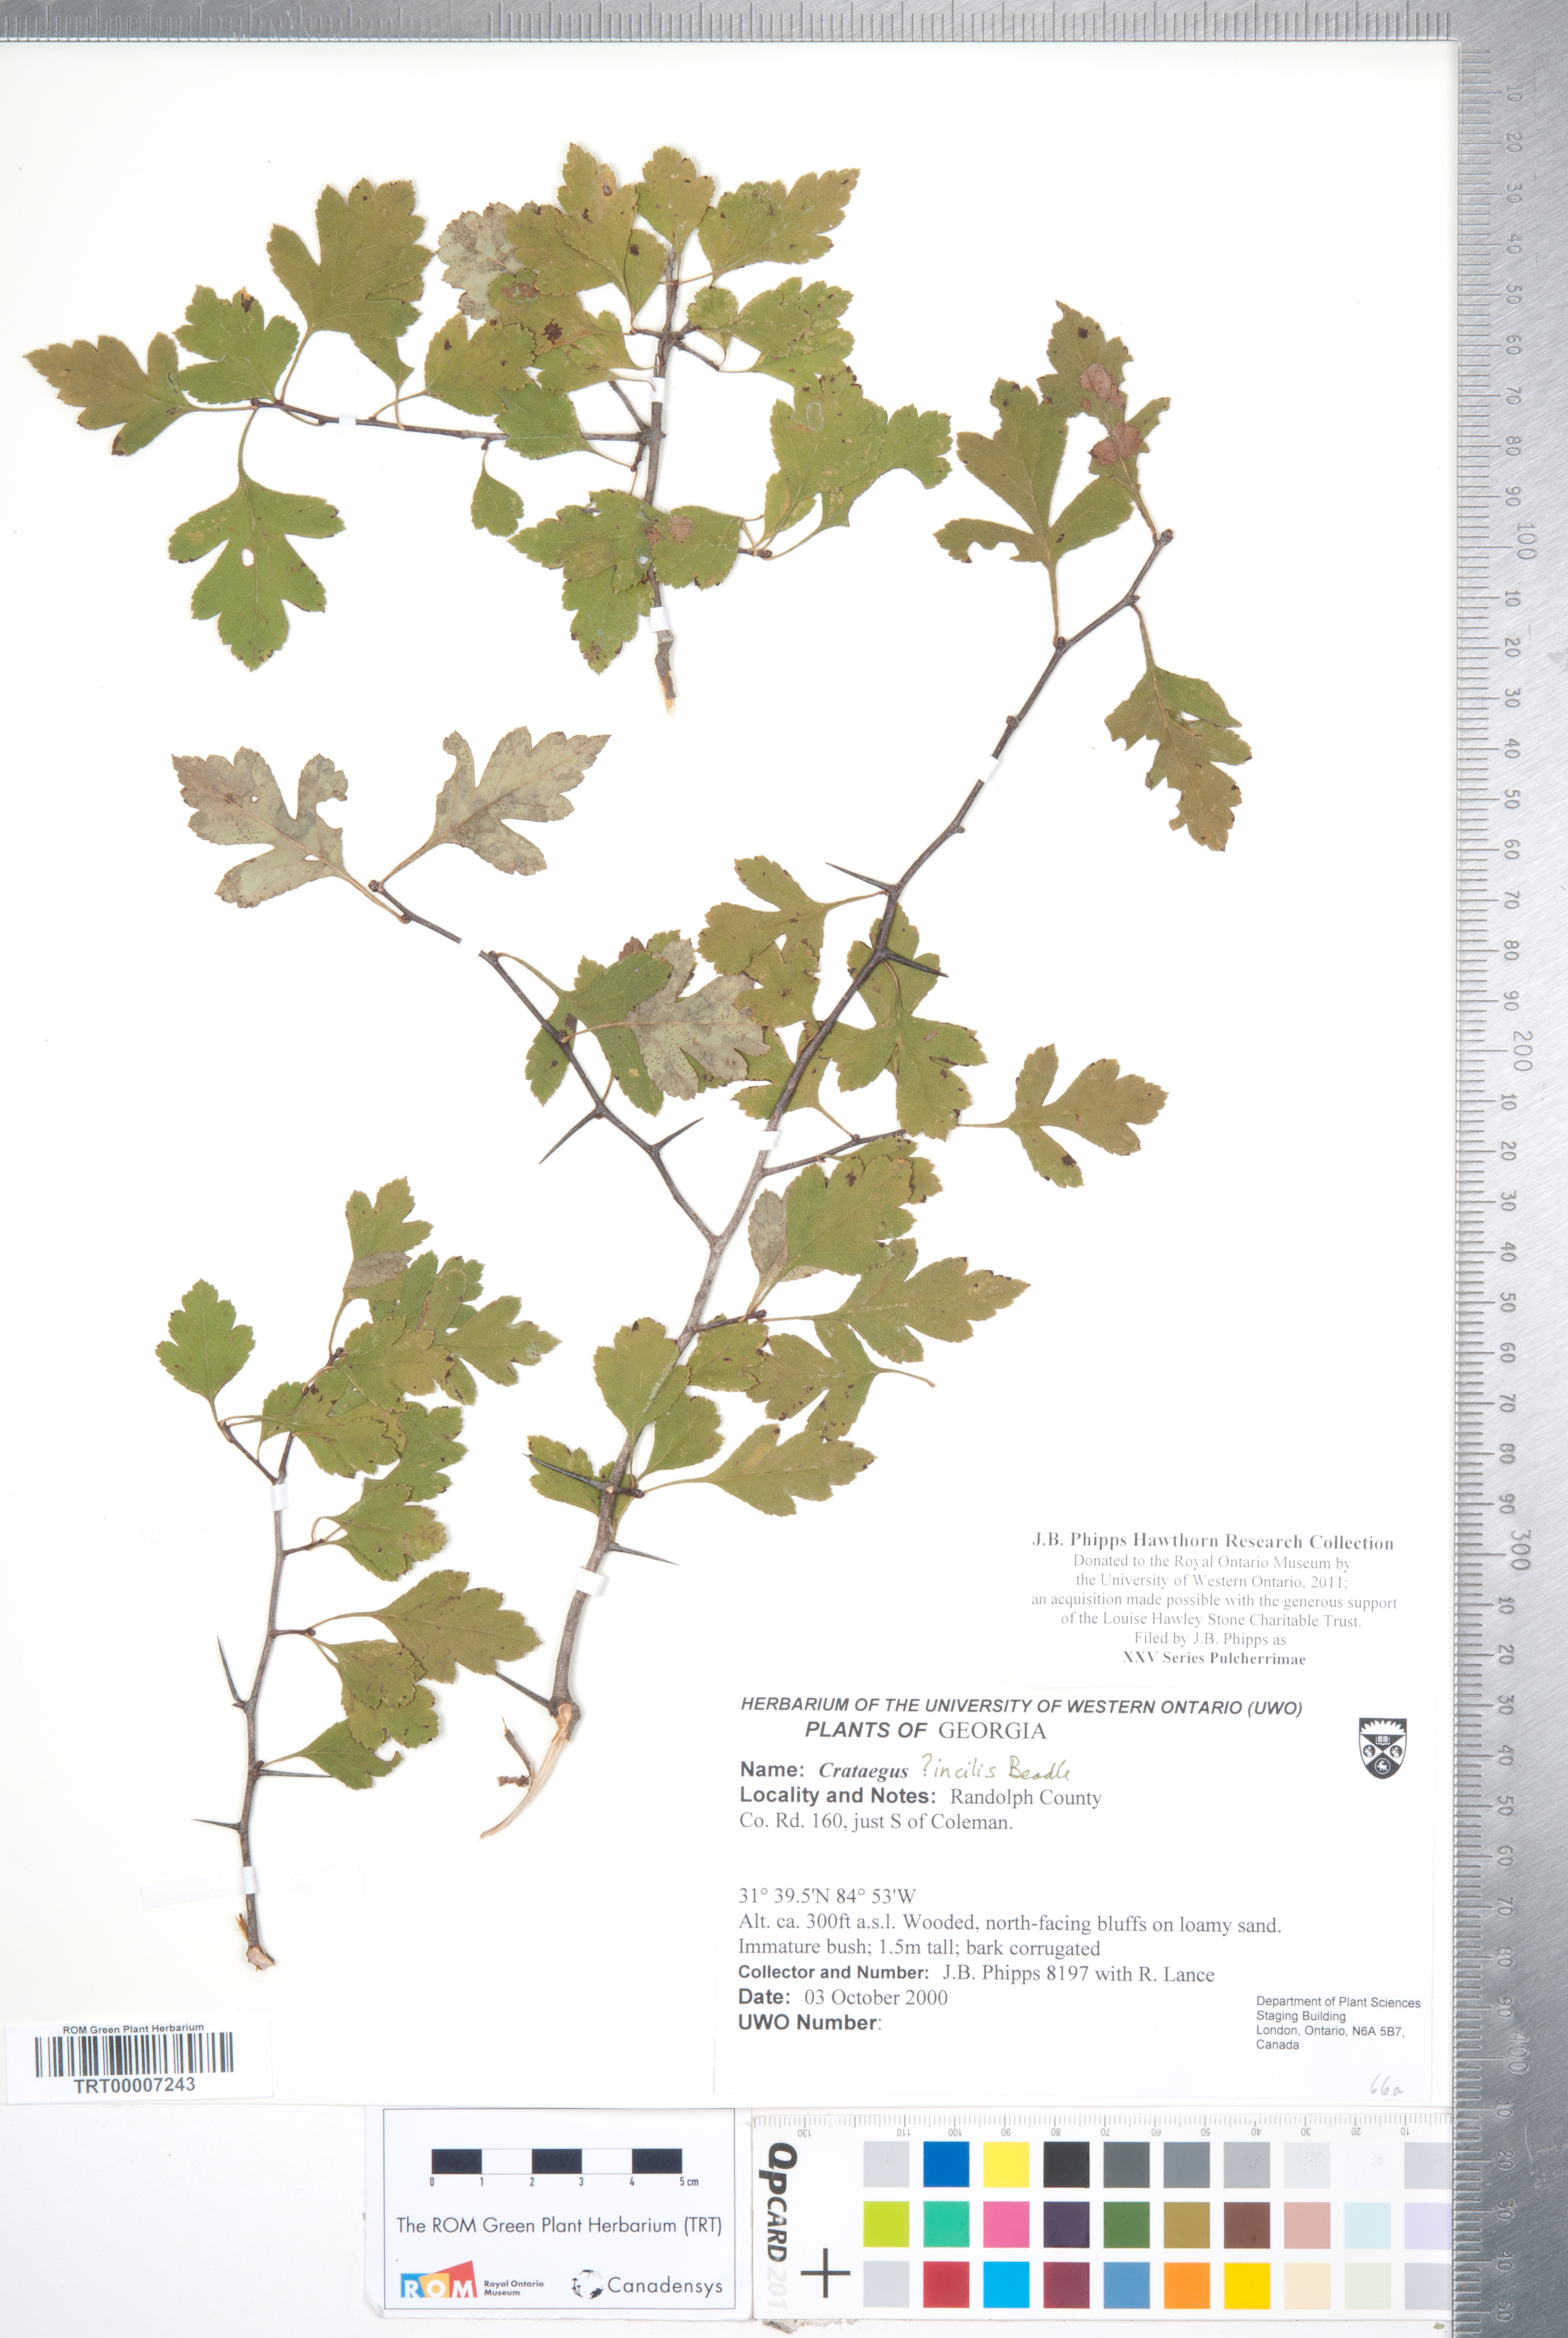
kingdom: Plantae
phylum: Tracheophyta
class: Magnoliopsida
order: Rosales
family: Rosaceae
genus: Crataegus
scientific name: Crataegus
